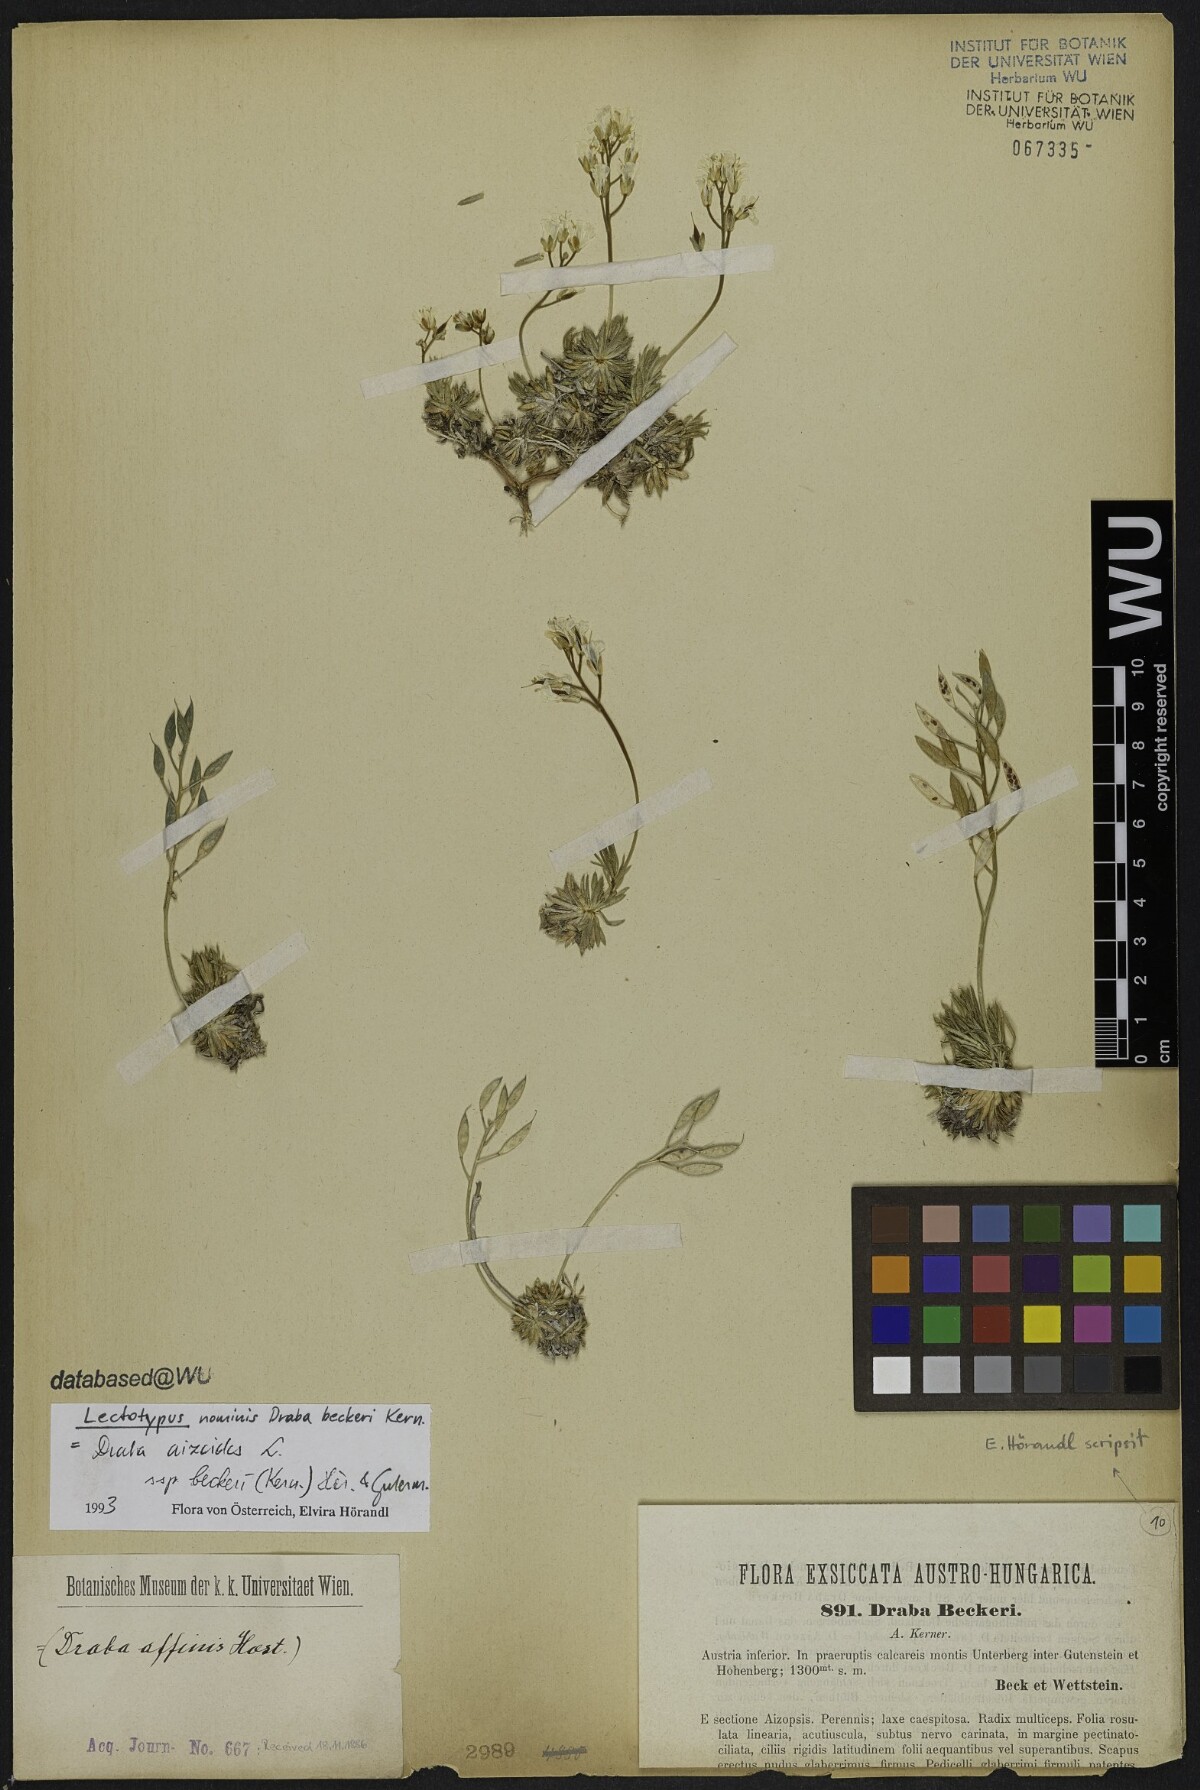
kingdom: Plantae
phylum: Tracheophyta
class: Magnoliopsida
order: Brassicales
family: Brassicaceae
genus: Draba
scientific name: Draba aizoides
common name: Yellow whitlowgrass
